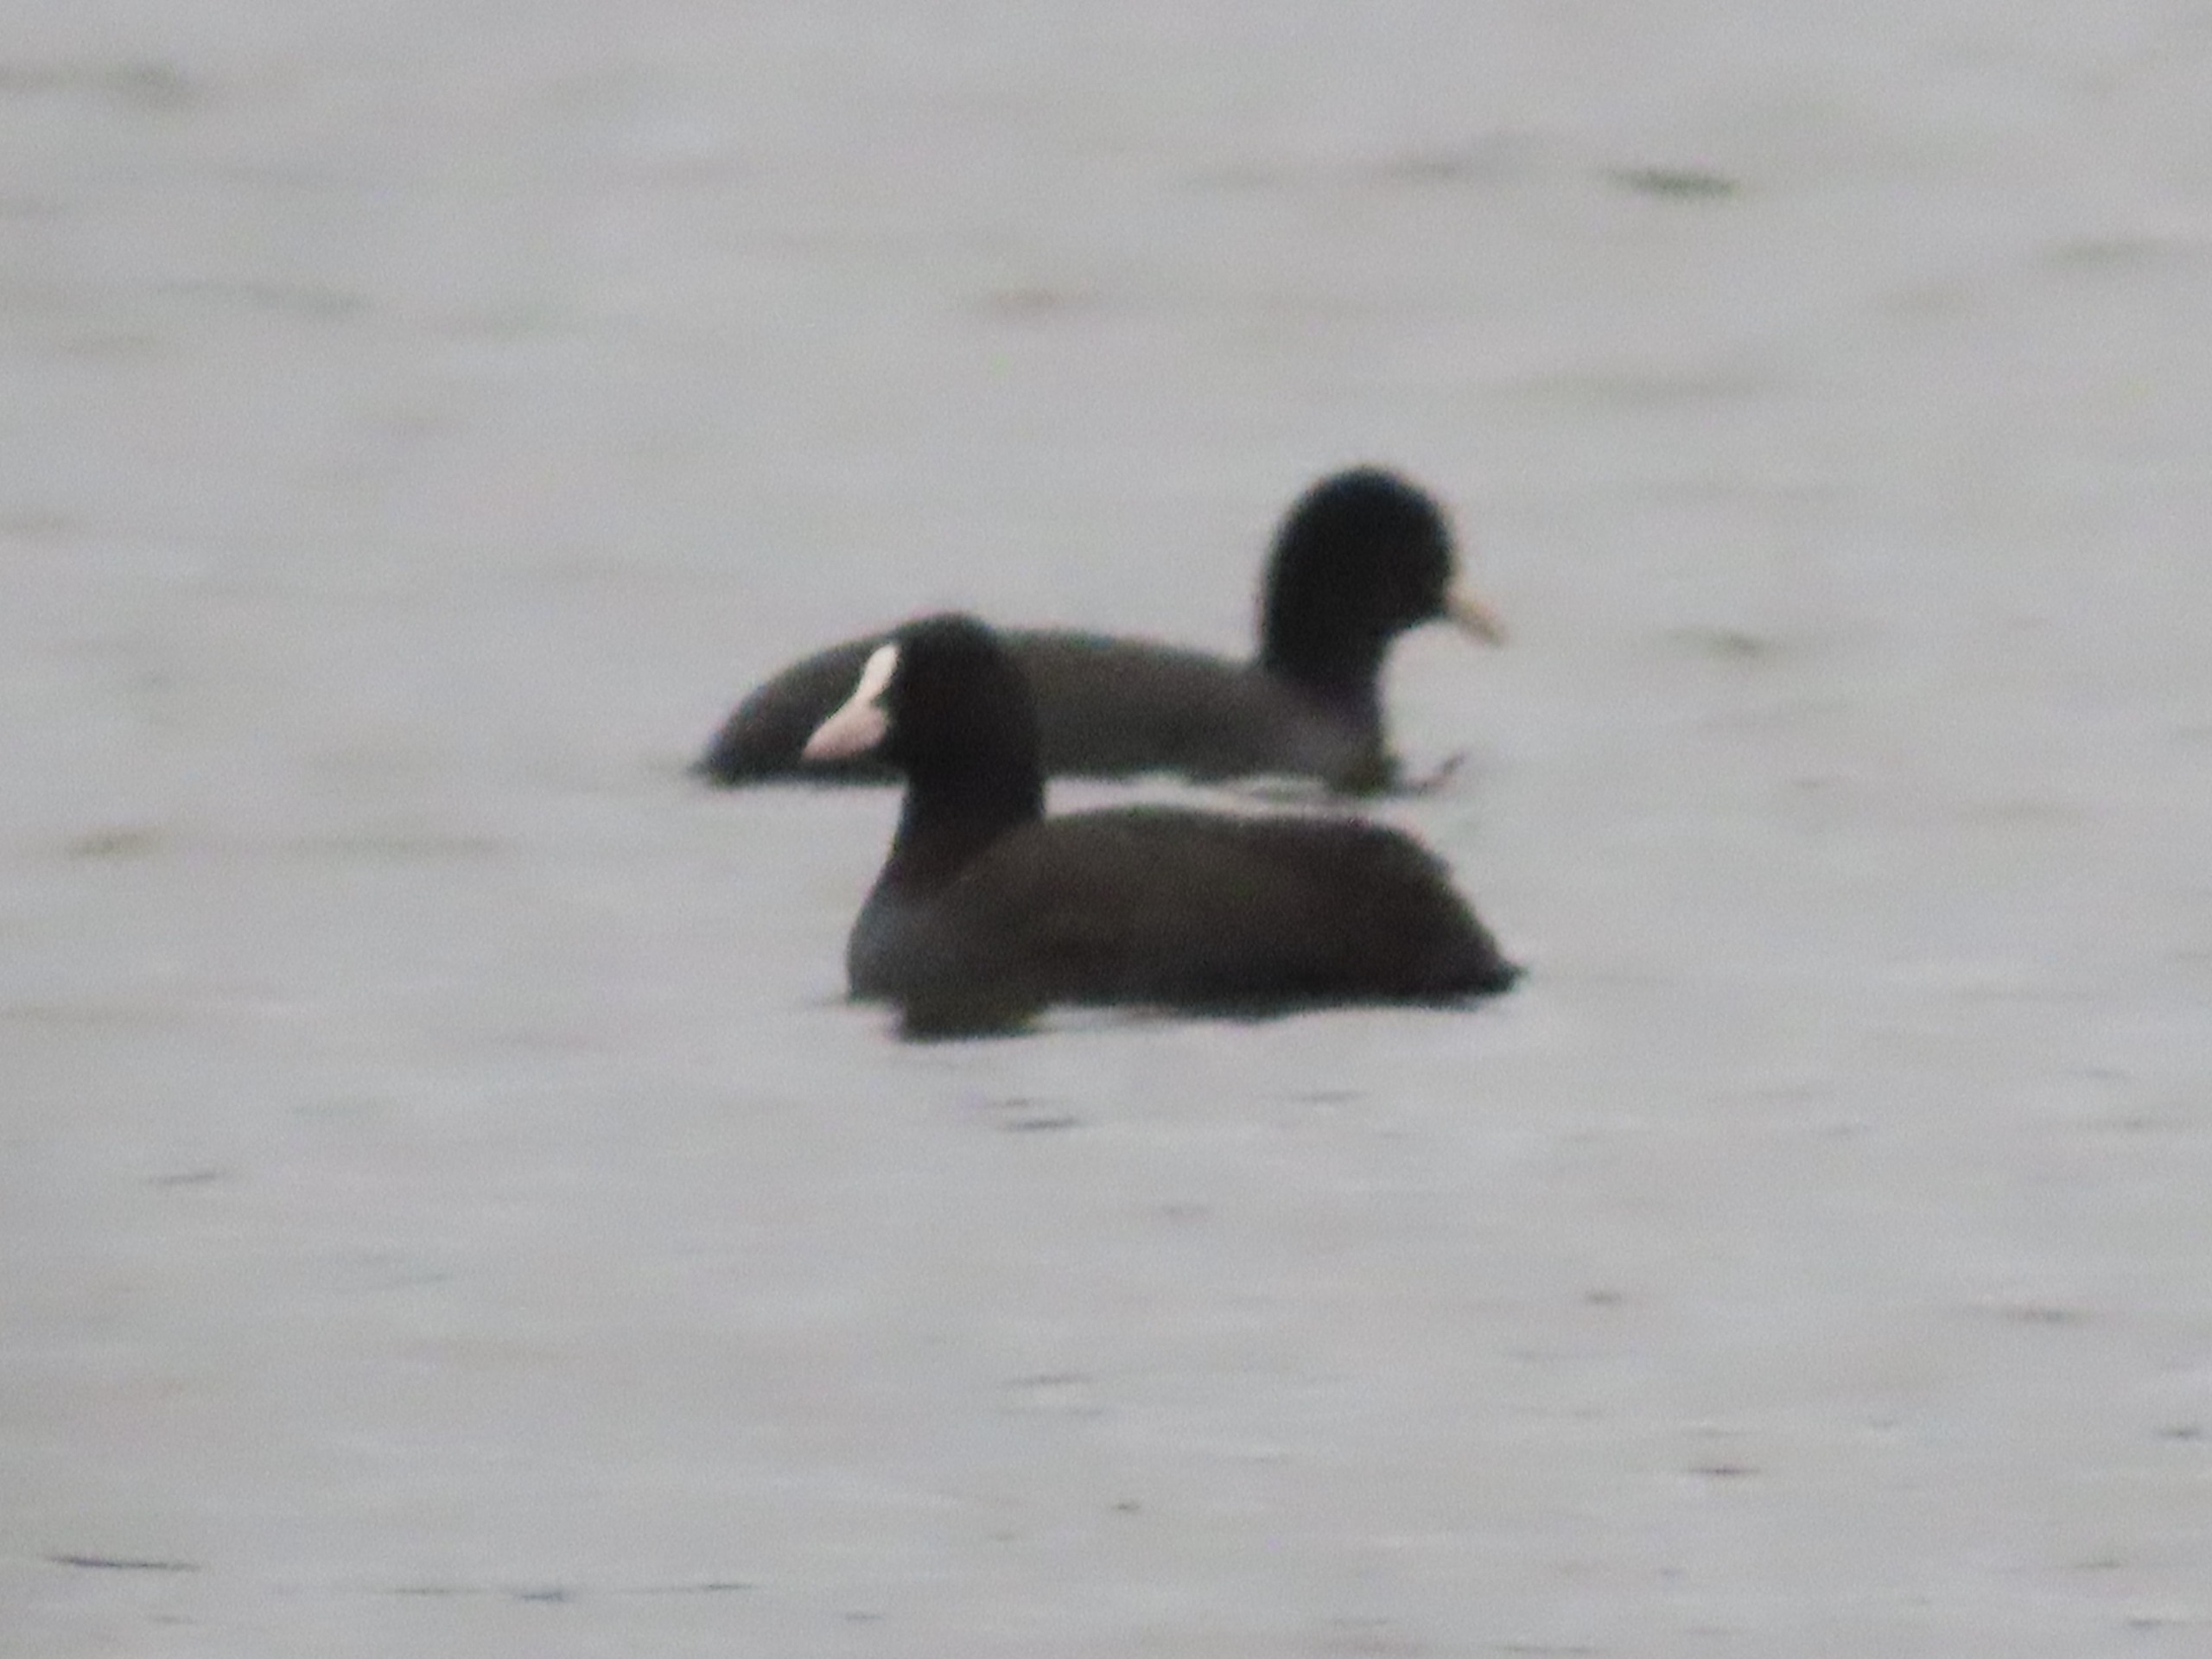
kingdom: Animalia
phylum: Chordata
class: Aves
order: Gruiformes
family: Rallidae
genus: Fulica
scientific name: Fulica atra
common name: Blishøne
